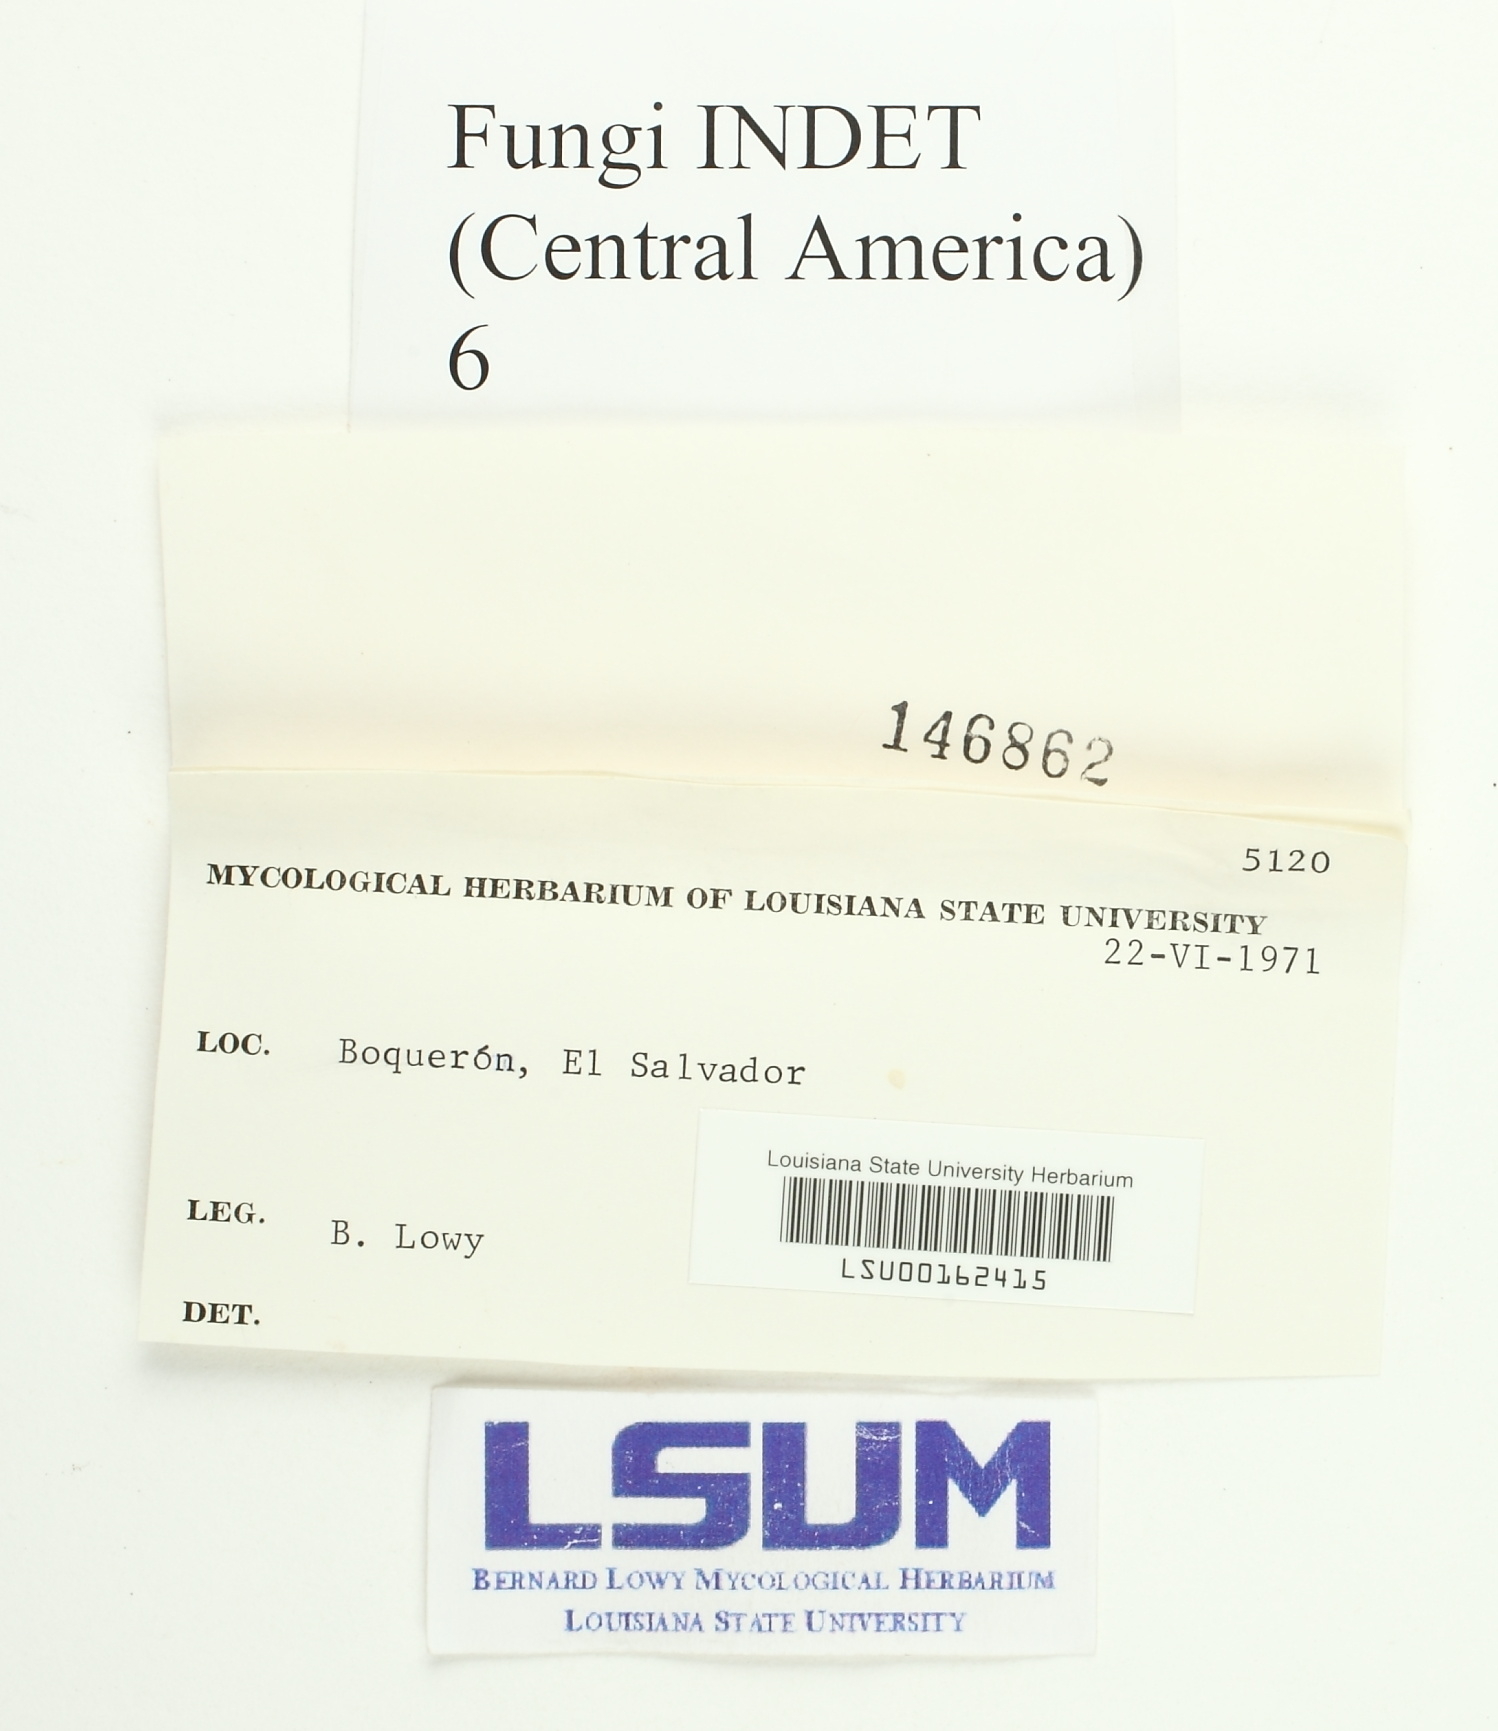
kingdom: Fungi
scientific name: Fungi
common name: Fungi
